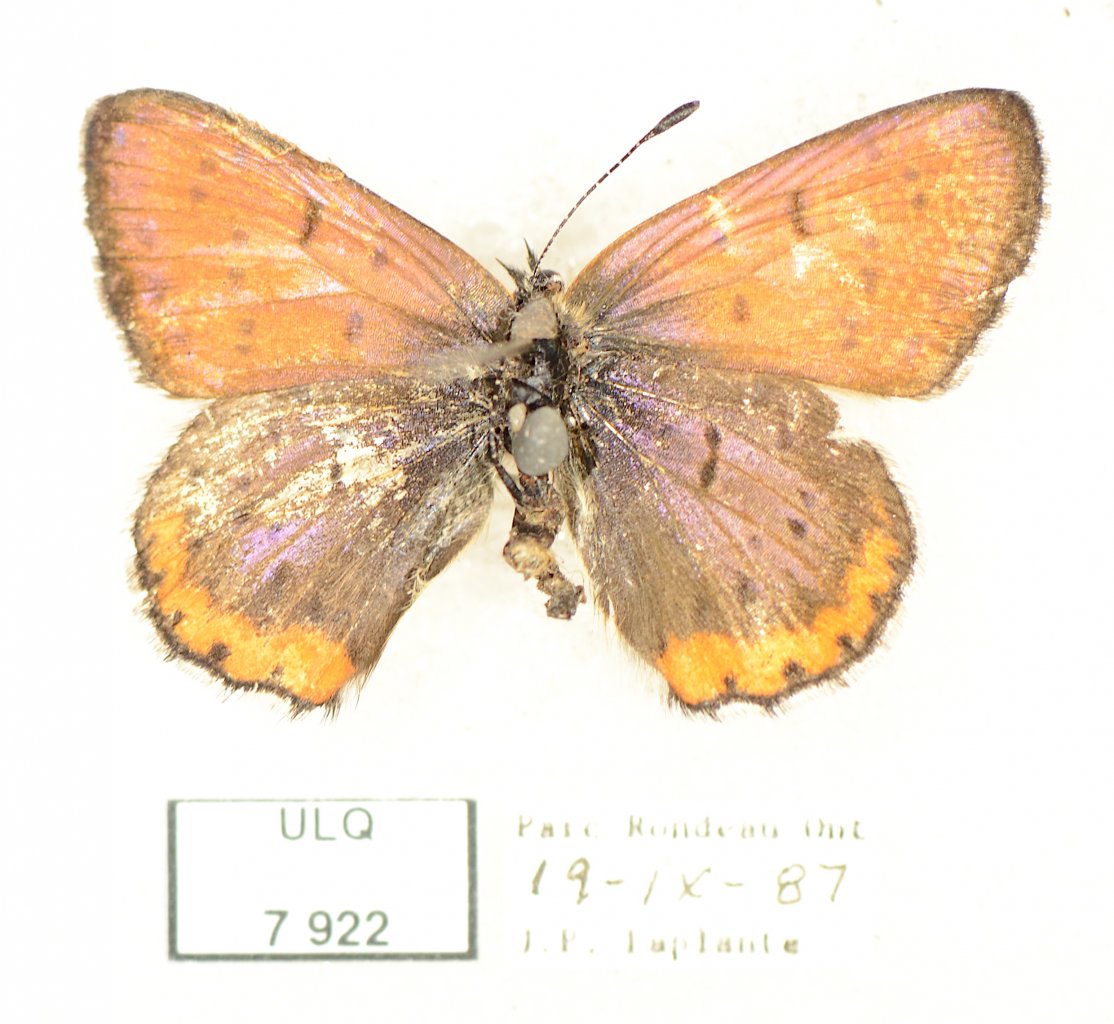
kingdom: Animalia
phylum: Arthropoda
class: Insecta
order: Lepidoptera
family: Sesiidae
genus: Sesia
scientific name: Sesia Lycaena hyllus
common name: Bronze Copper
